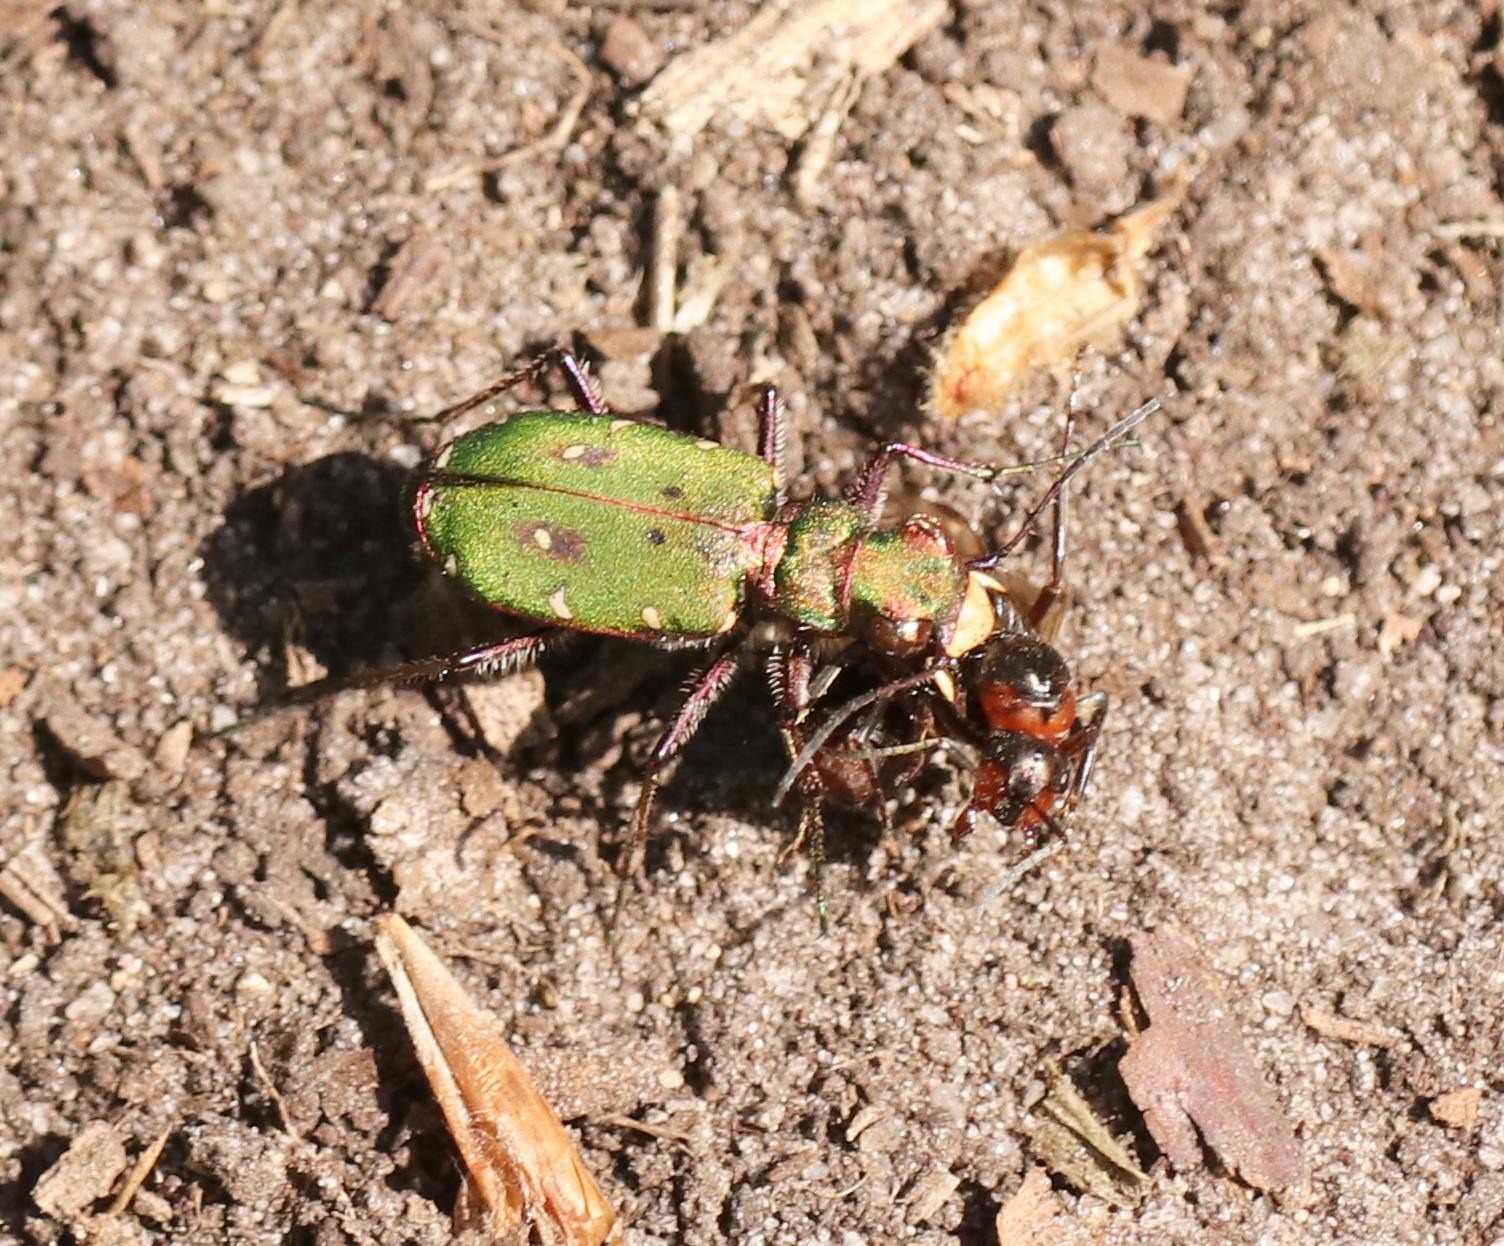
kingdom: Animalia
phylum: Arthropoda
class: Insecta
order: Coleoptera
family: Carabidae
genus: Cicindela
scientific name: Cicindela campestris
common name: Grøn sandspringer
